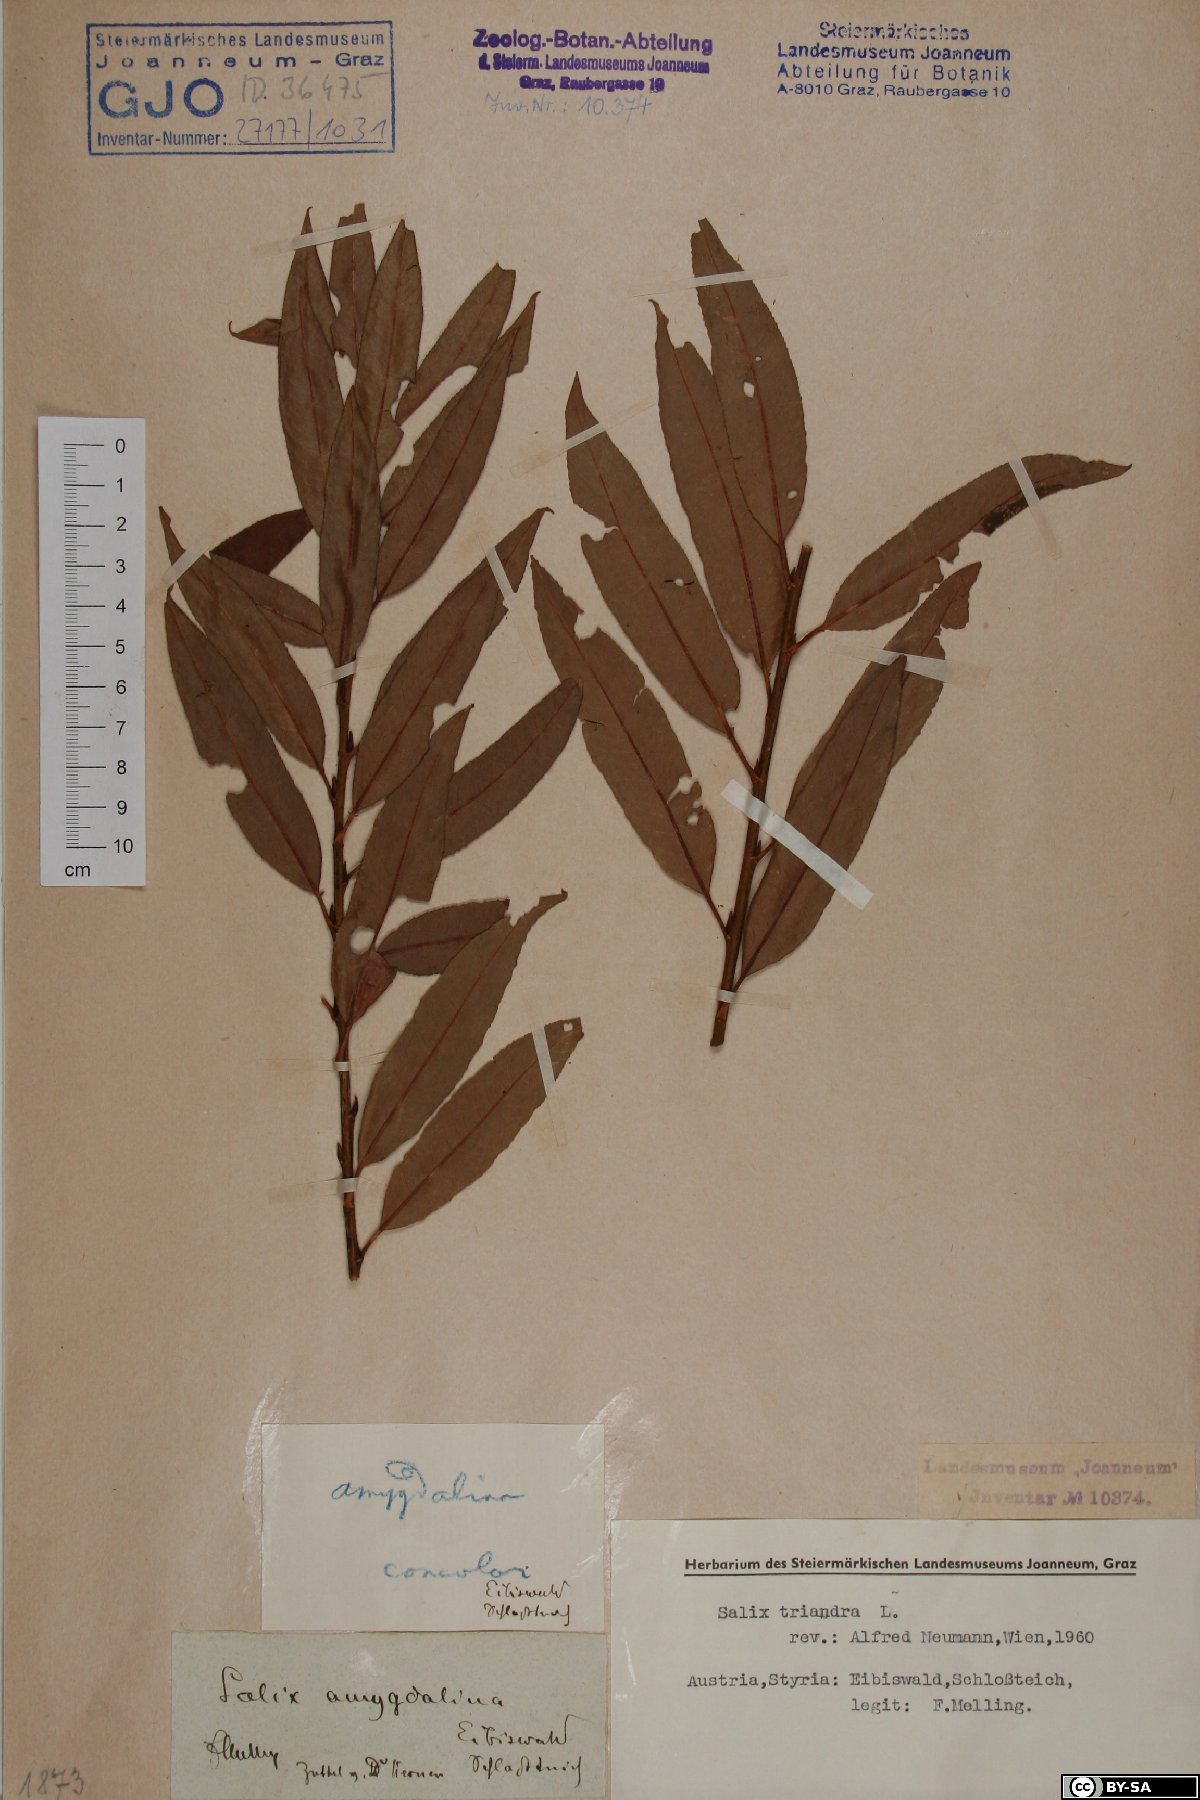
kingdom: Plantae
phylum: Tracheophyta
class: Magnoliopsida
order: Malpighiales
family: Salicaceae
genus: Salix
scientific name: Salix triandra
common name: Almond willow
